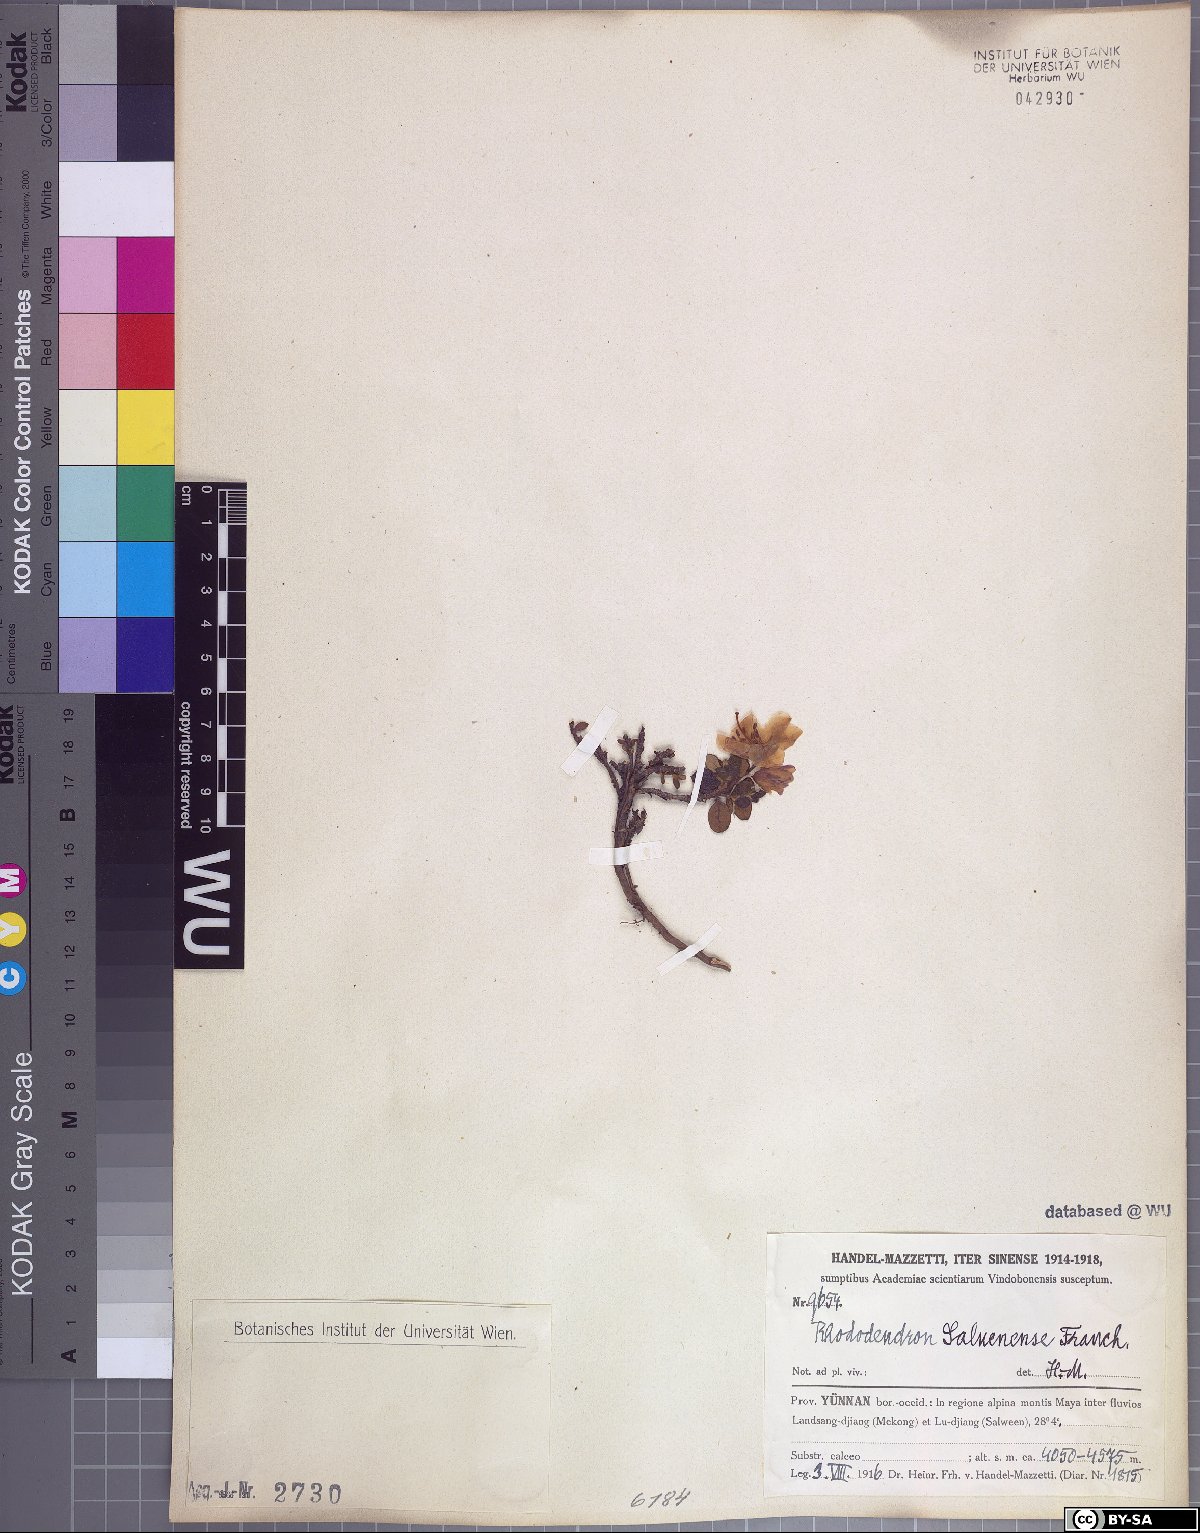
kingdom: Plantae
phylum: Tracheophyta
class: Magnoliopsida
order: Ericales
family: Ericaceae
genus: Rhododendron
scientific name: Rhododendron saluenense
